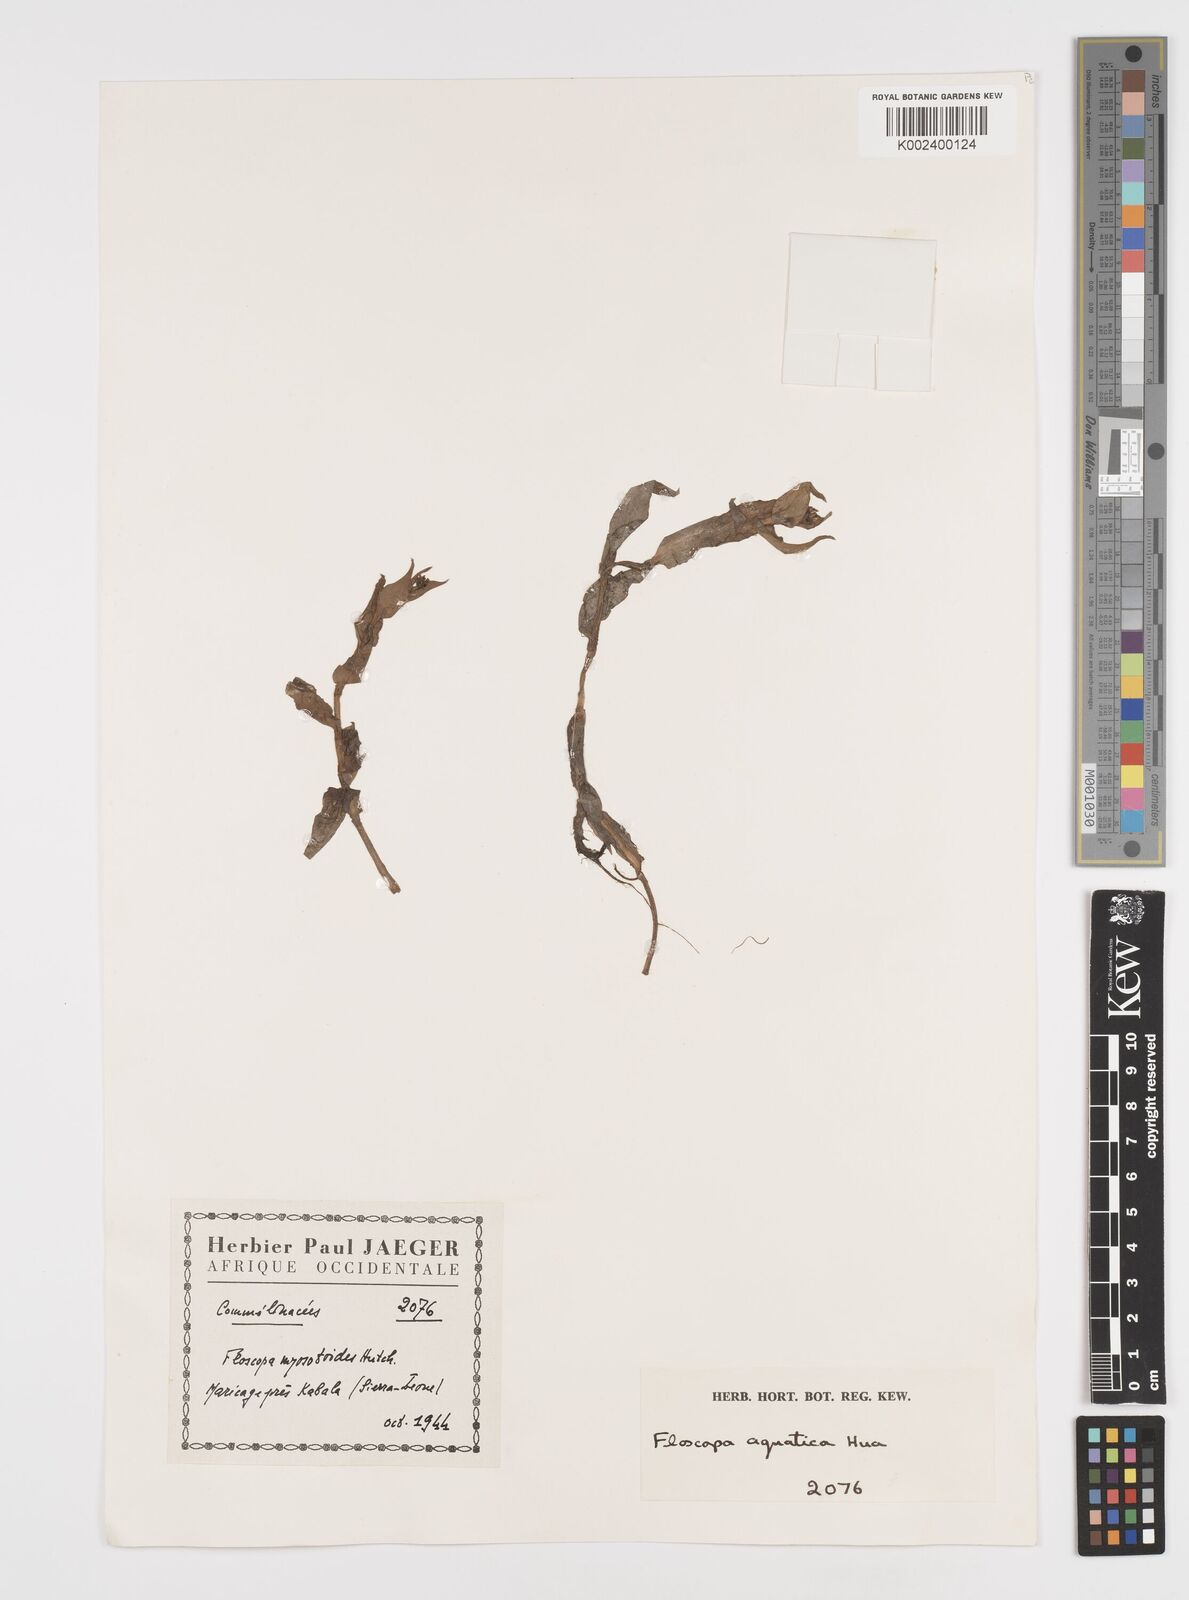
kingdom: Plantae
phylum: Tracheophyta
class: Liliopsida
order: Commelinales
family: Commelinaceae
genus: Floscopa
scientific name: Floscopa aquatica
